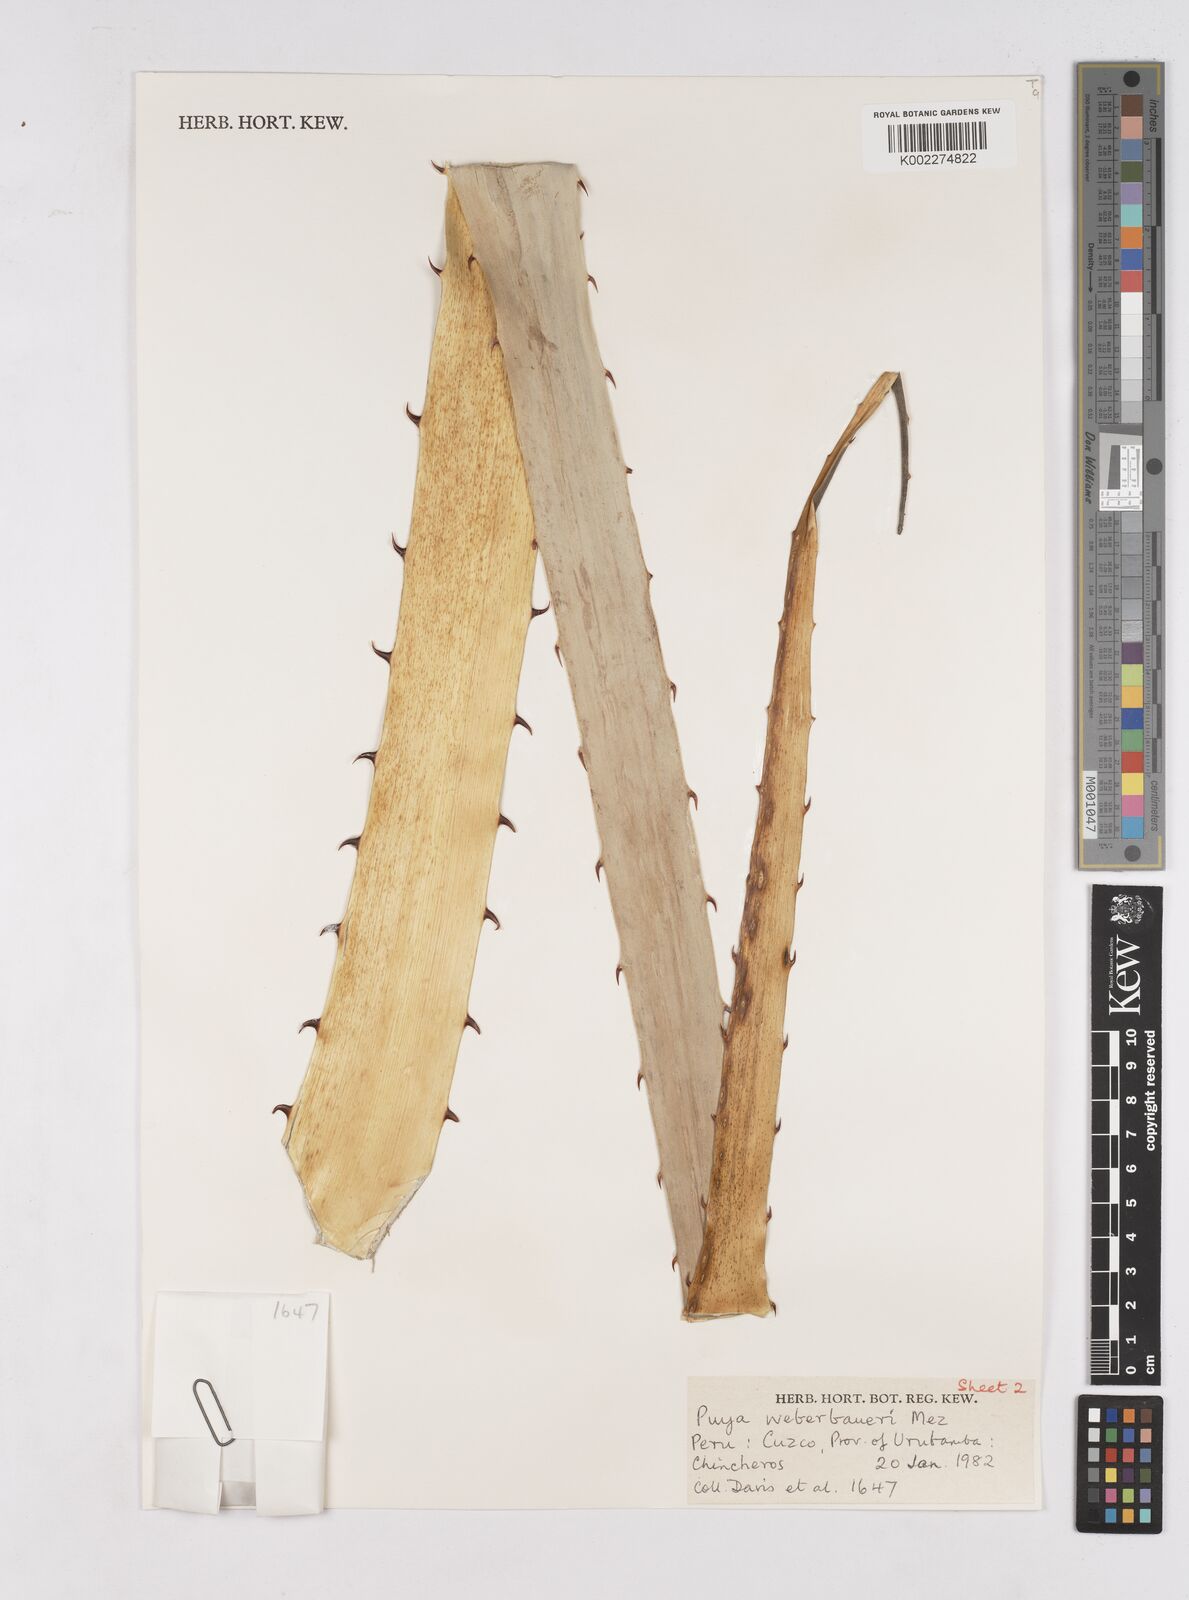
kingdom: Plantae
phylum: Tracheophyta
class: Liliopsida
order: Poales
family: Bromeliaceae
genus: Puya
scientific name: Puya weberbaueri
